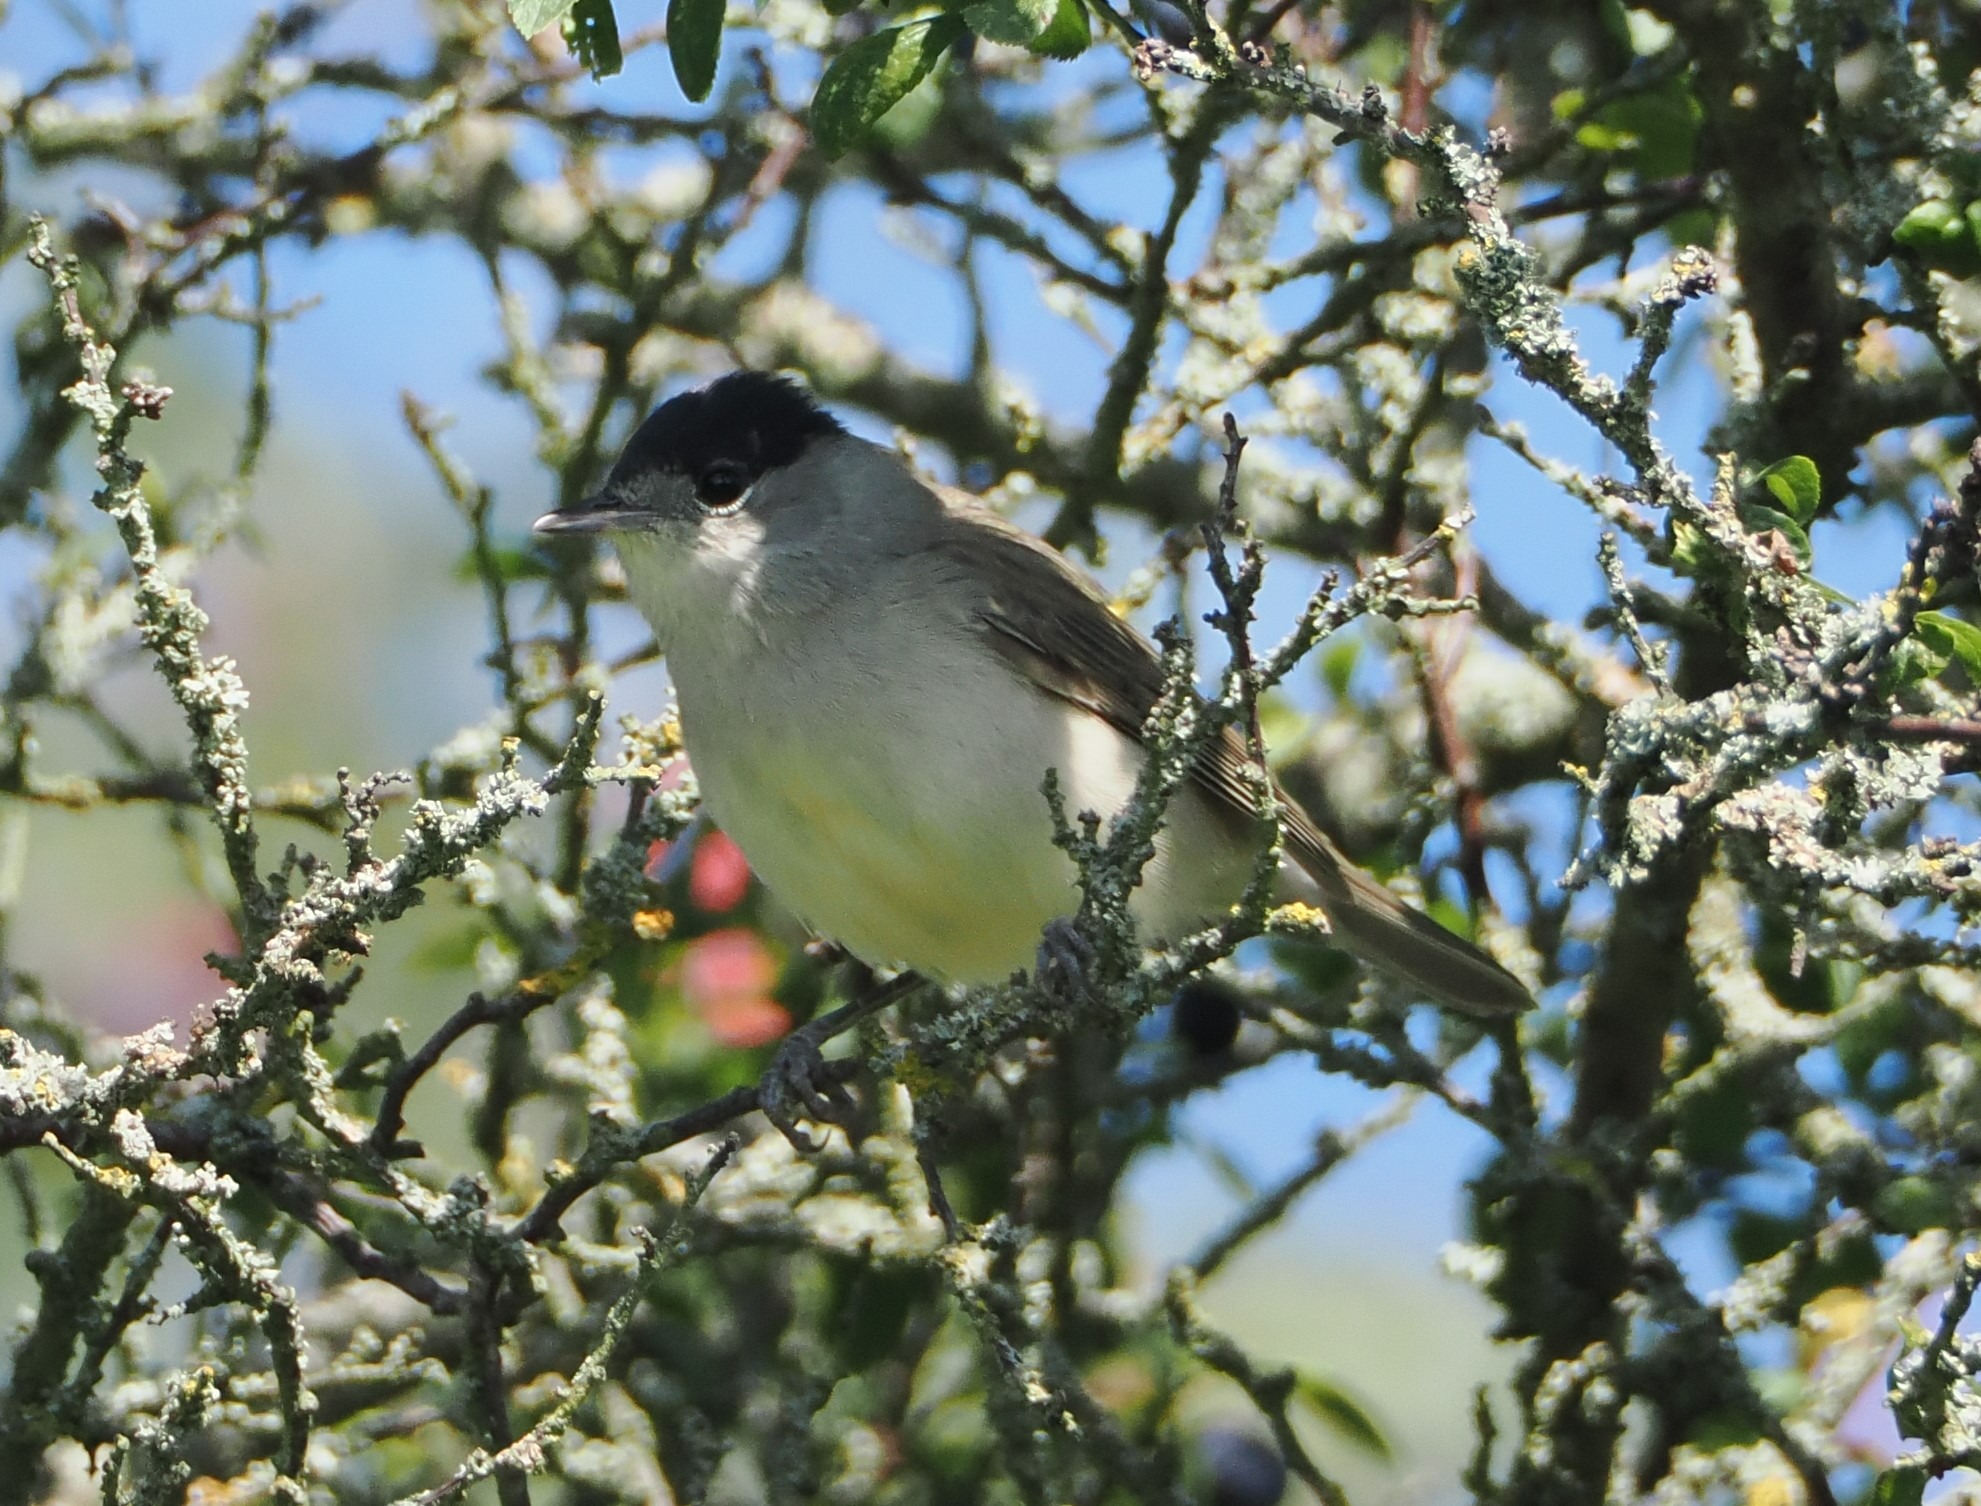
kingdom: Animalia
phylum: Chordata
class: Aves
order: Passeriformes
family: Sylviidae
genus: Sylvia
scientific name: Sylvia atricapilla
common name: Munk
